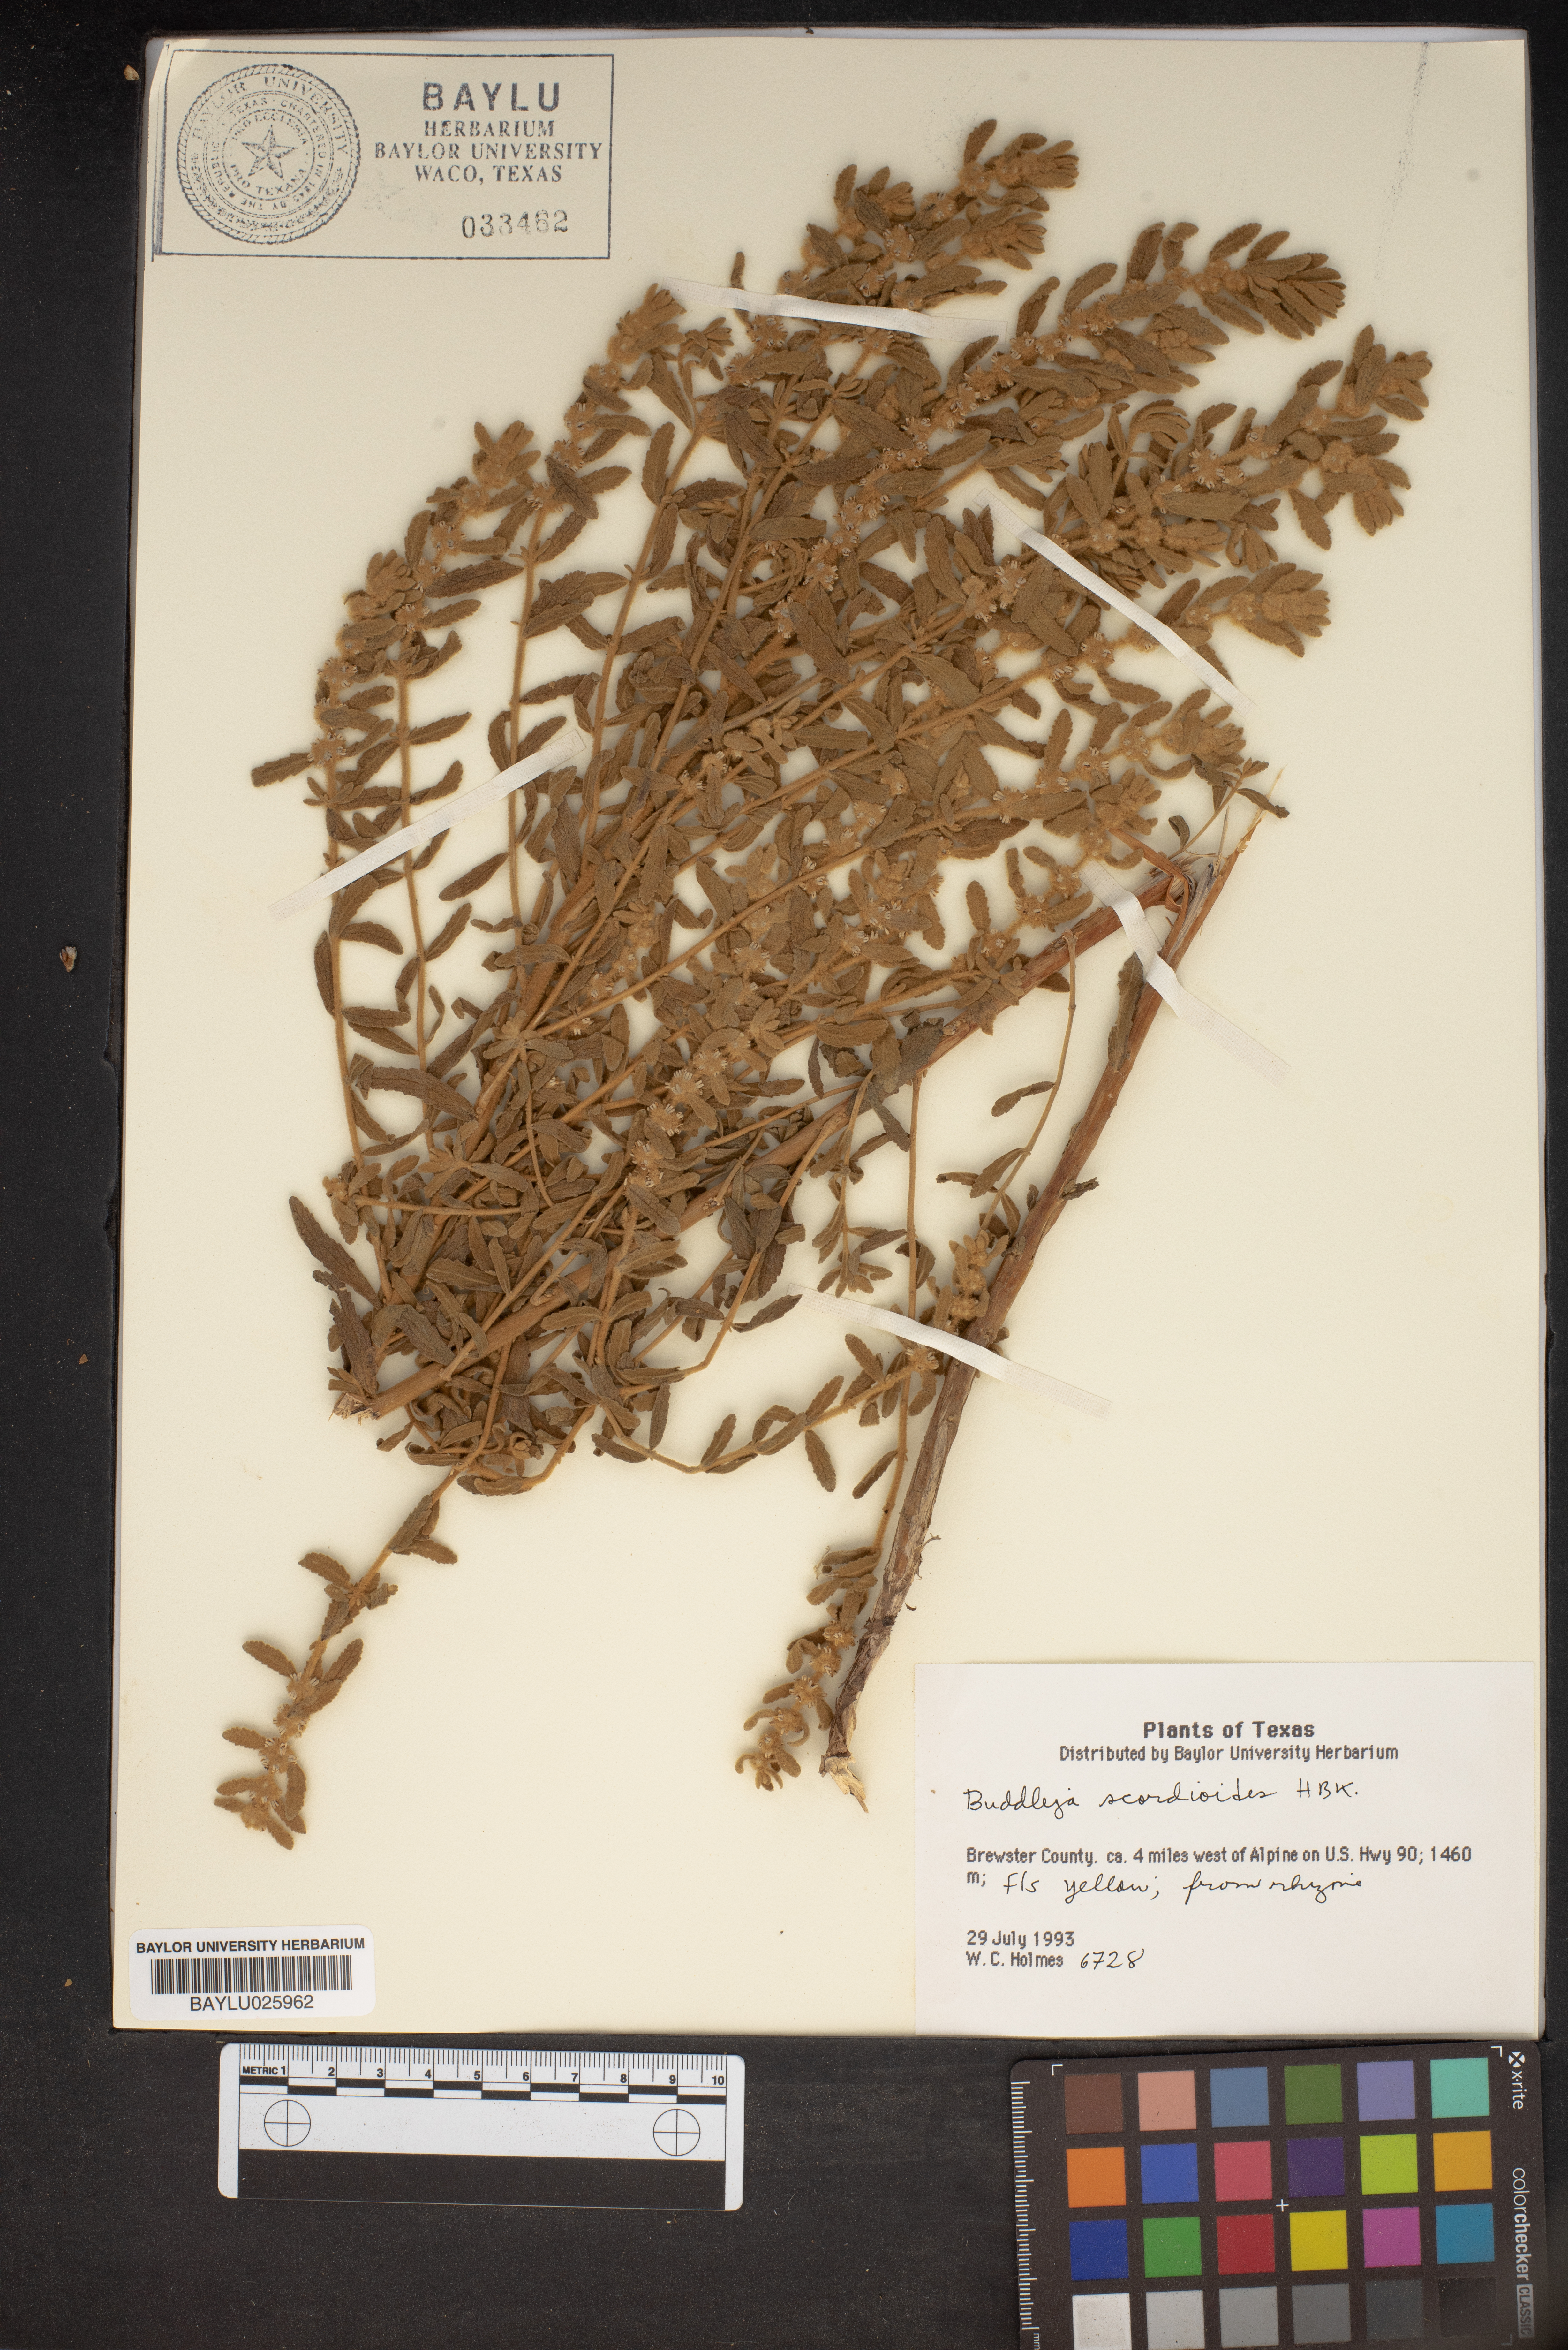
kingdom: Plantae
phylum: Tracheophyta
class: Magnoliopsida
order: Lamiales
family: Scrophulariaceae
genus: Buddleja
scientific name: Buddleja scordioides
